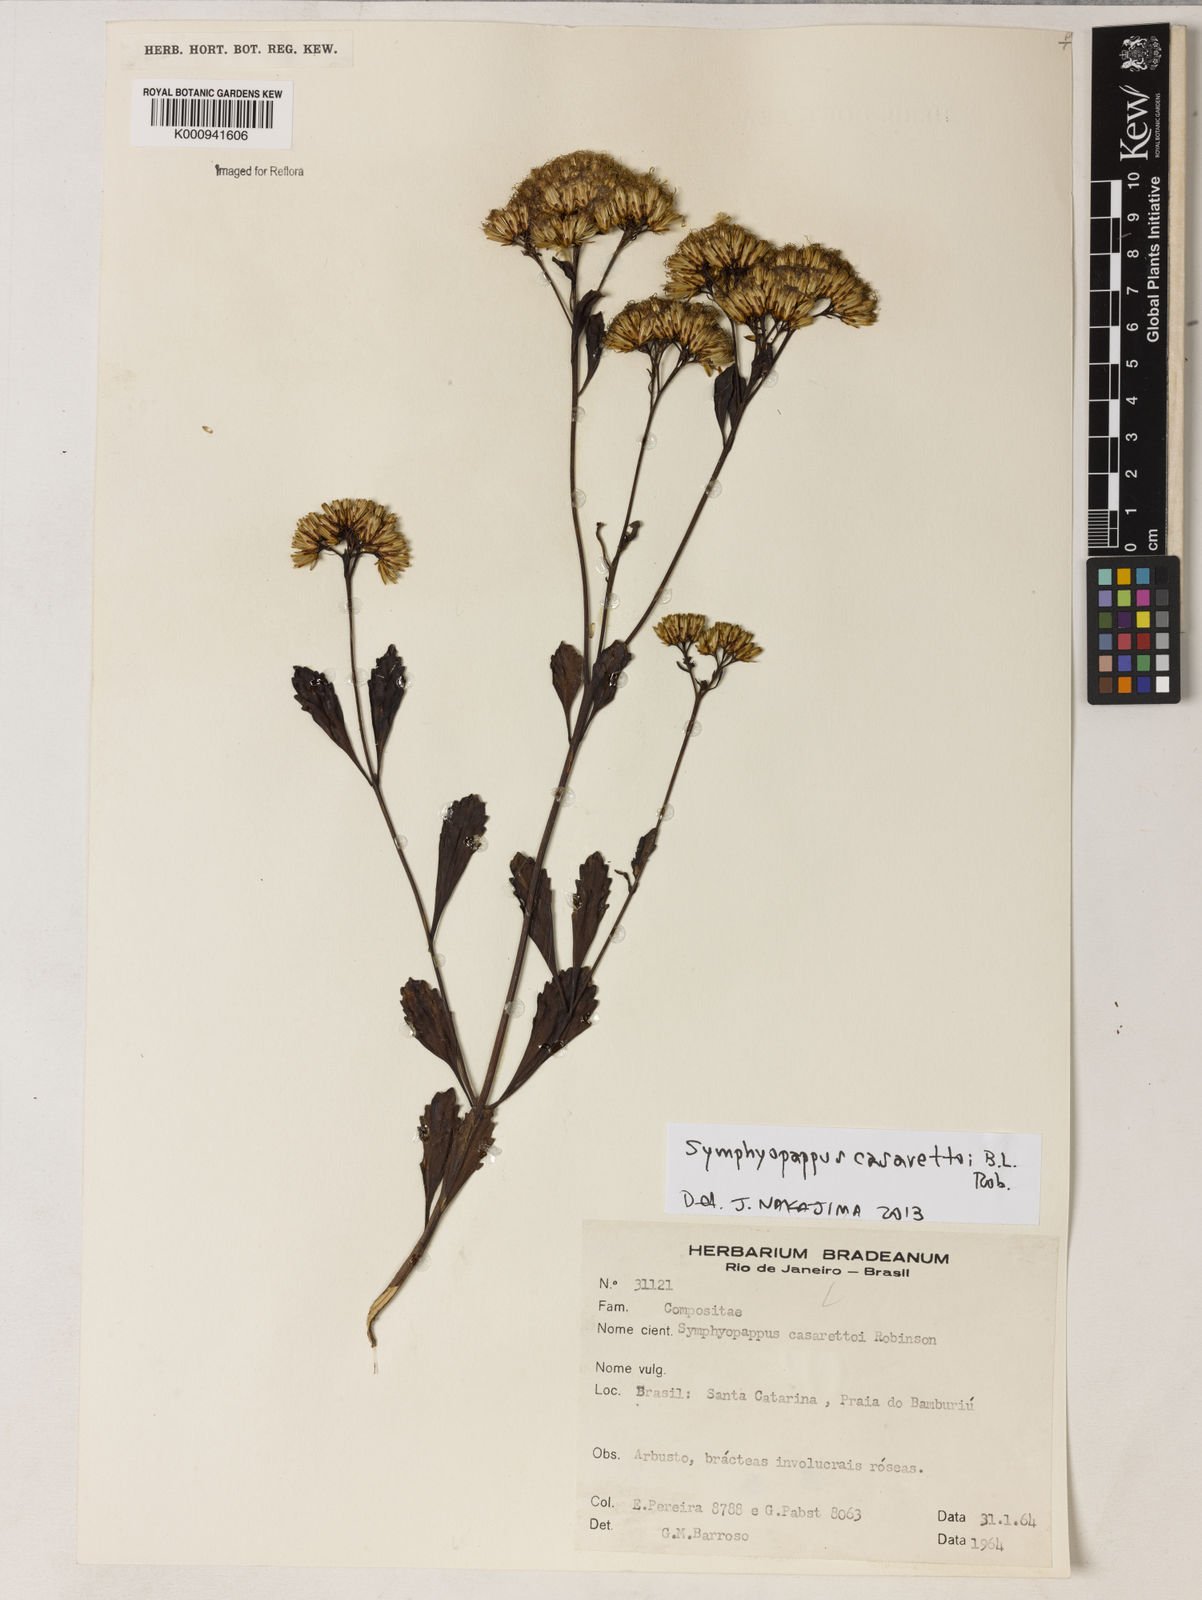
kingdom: Plantae
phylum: Tracheophyta
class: Magnoliopsida
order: Asterales
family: Asteraceae
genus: Symphyopappus
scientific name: Symphyopappus casarettoi
